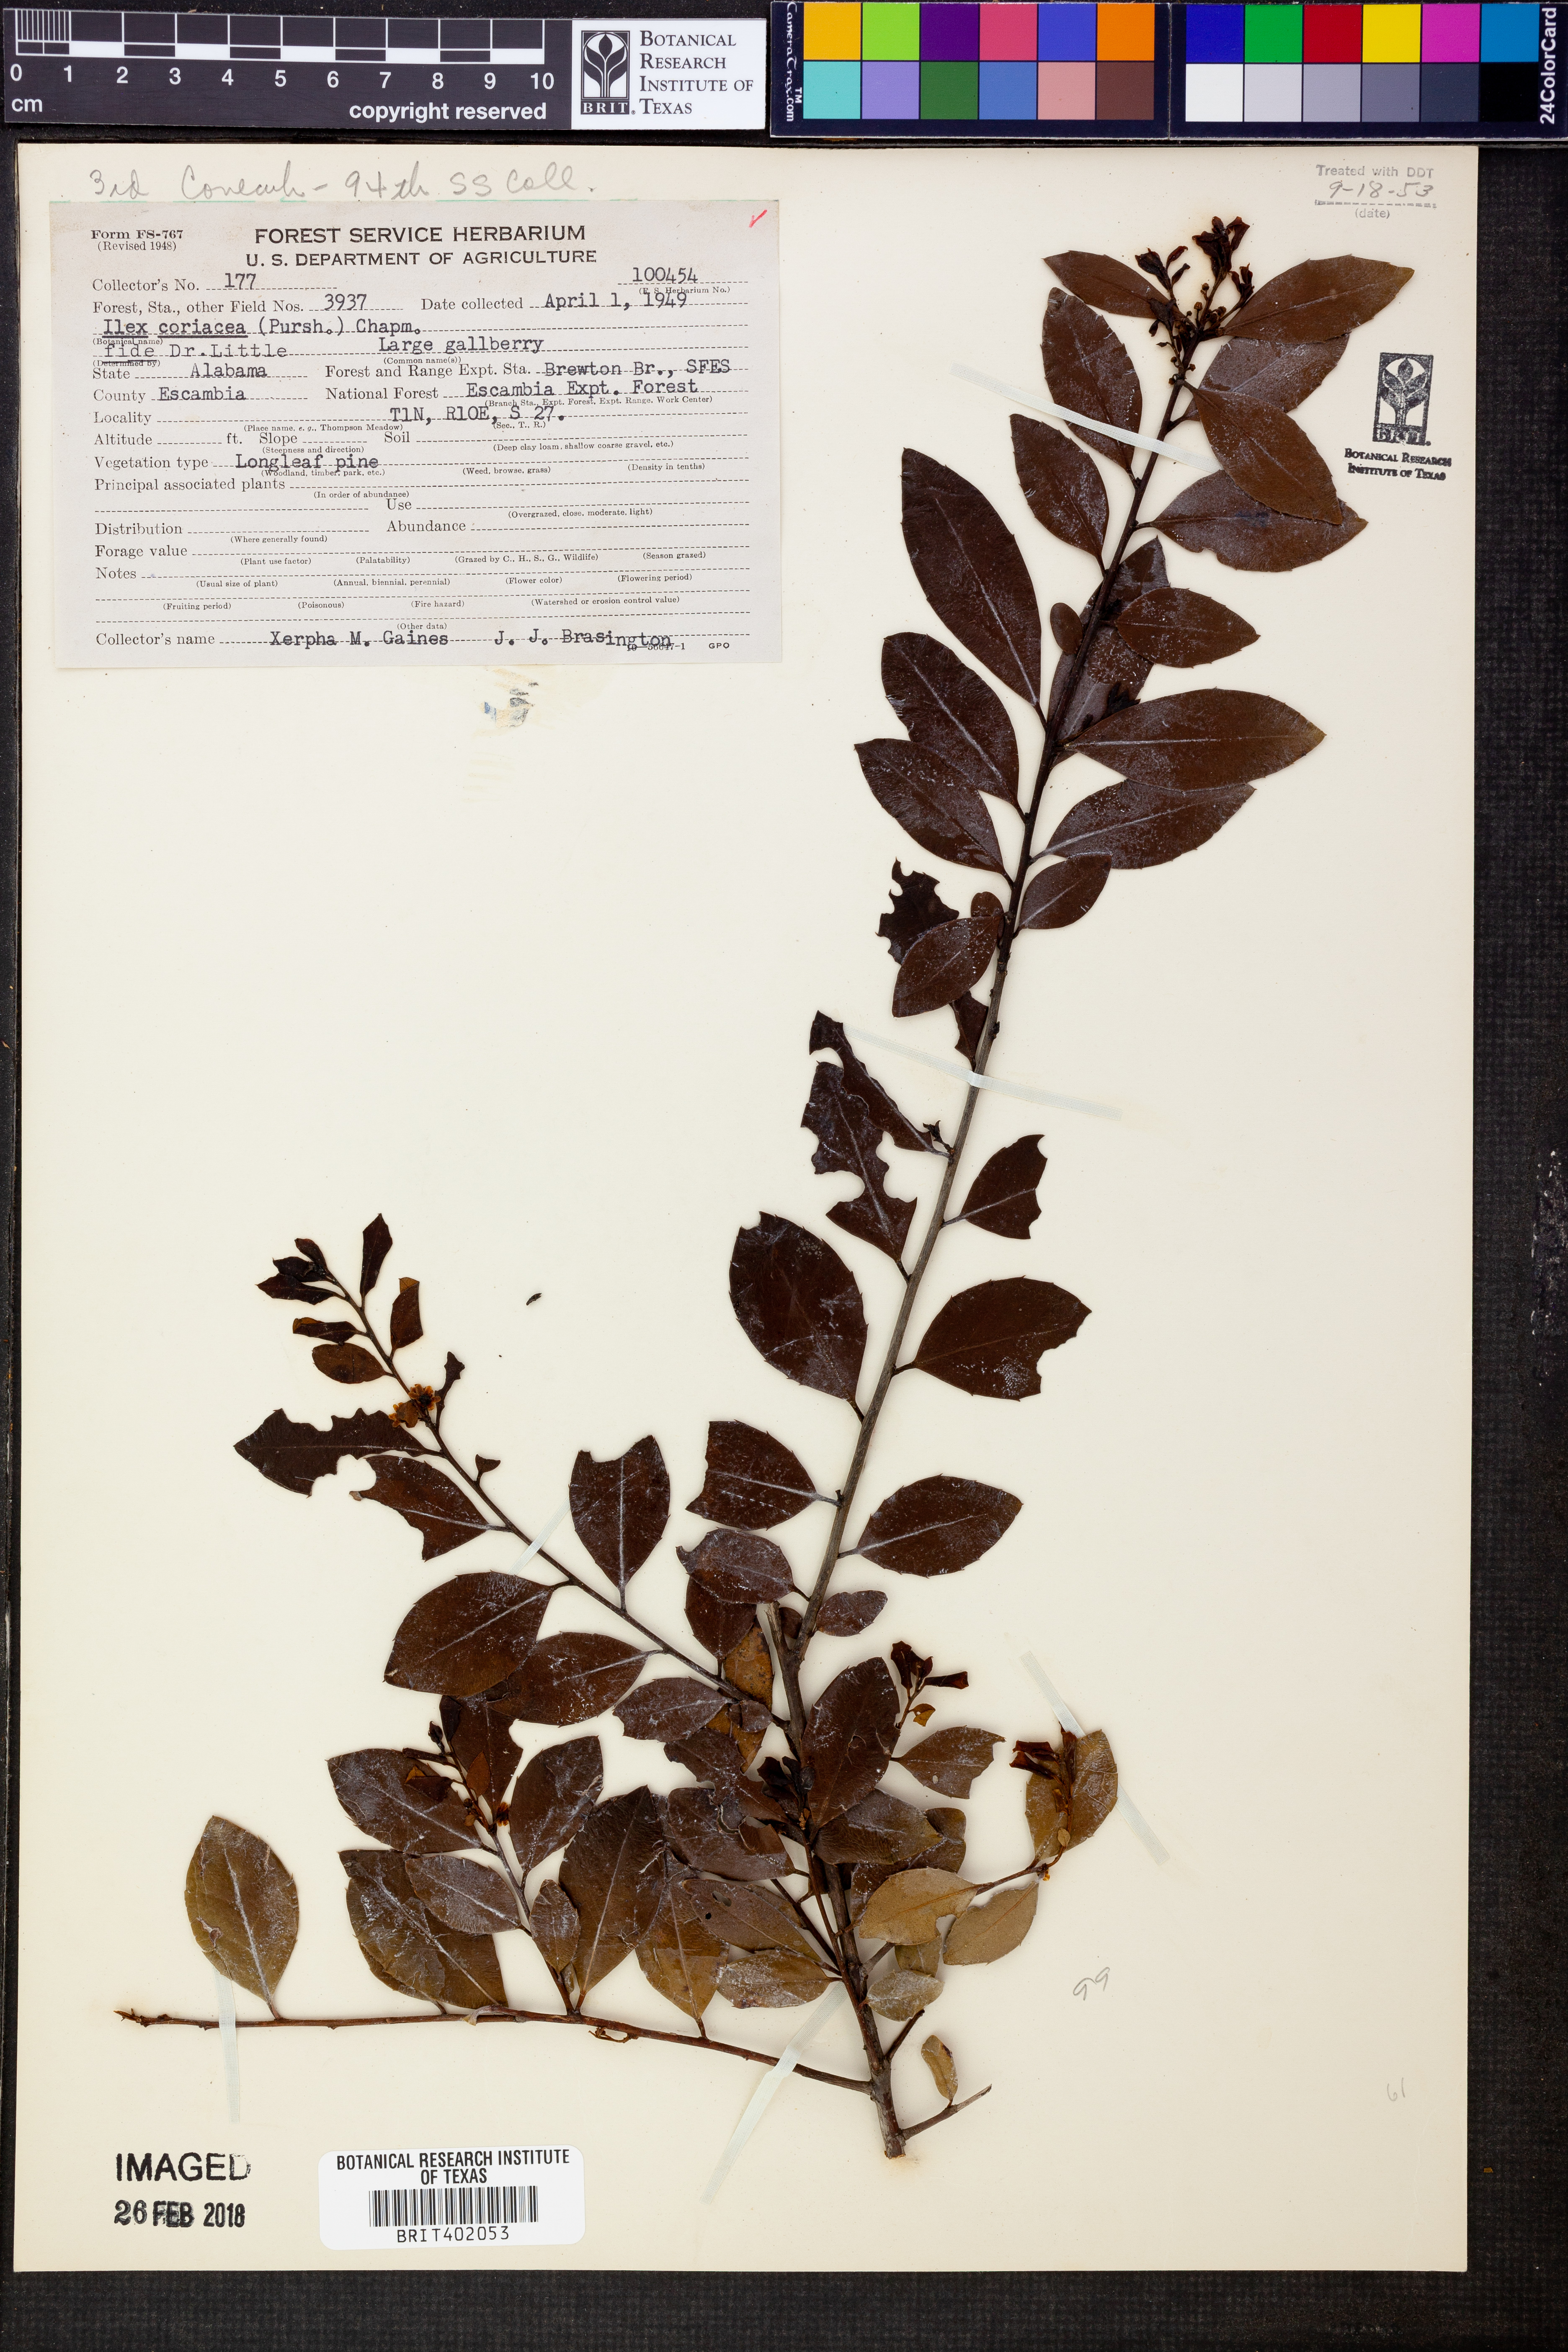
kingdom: Plantae
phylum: Tracheophyta
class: Magnoliopsida
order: Aquifoliales
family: Aquifoliaceae
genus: Ilex
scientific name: Ilex coriacea
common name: Sweet gallberry
